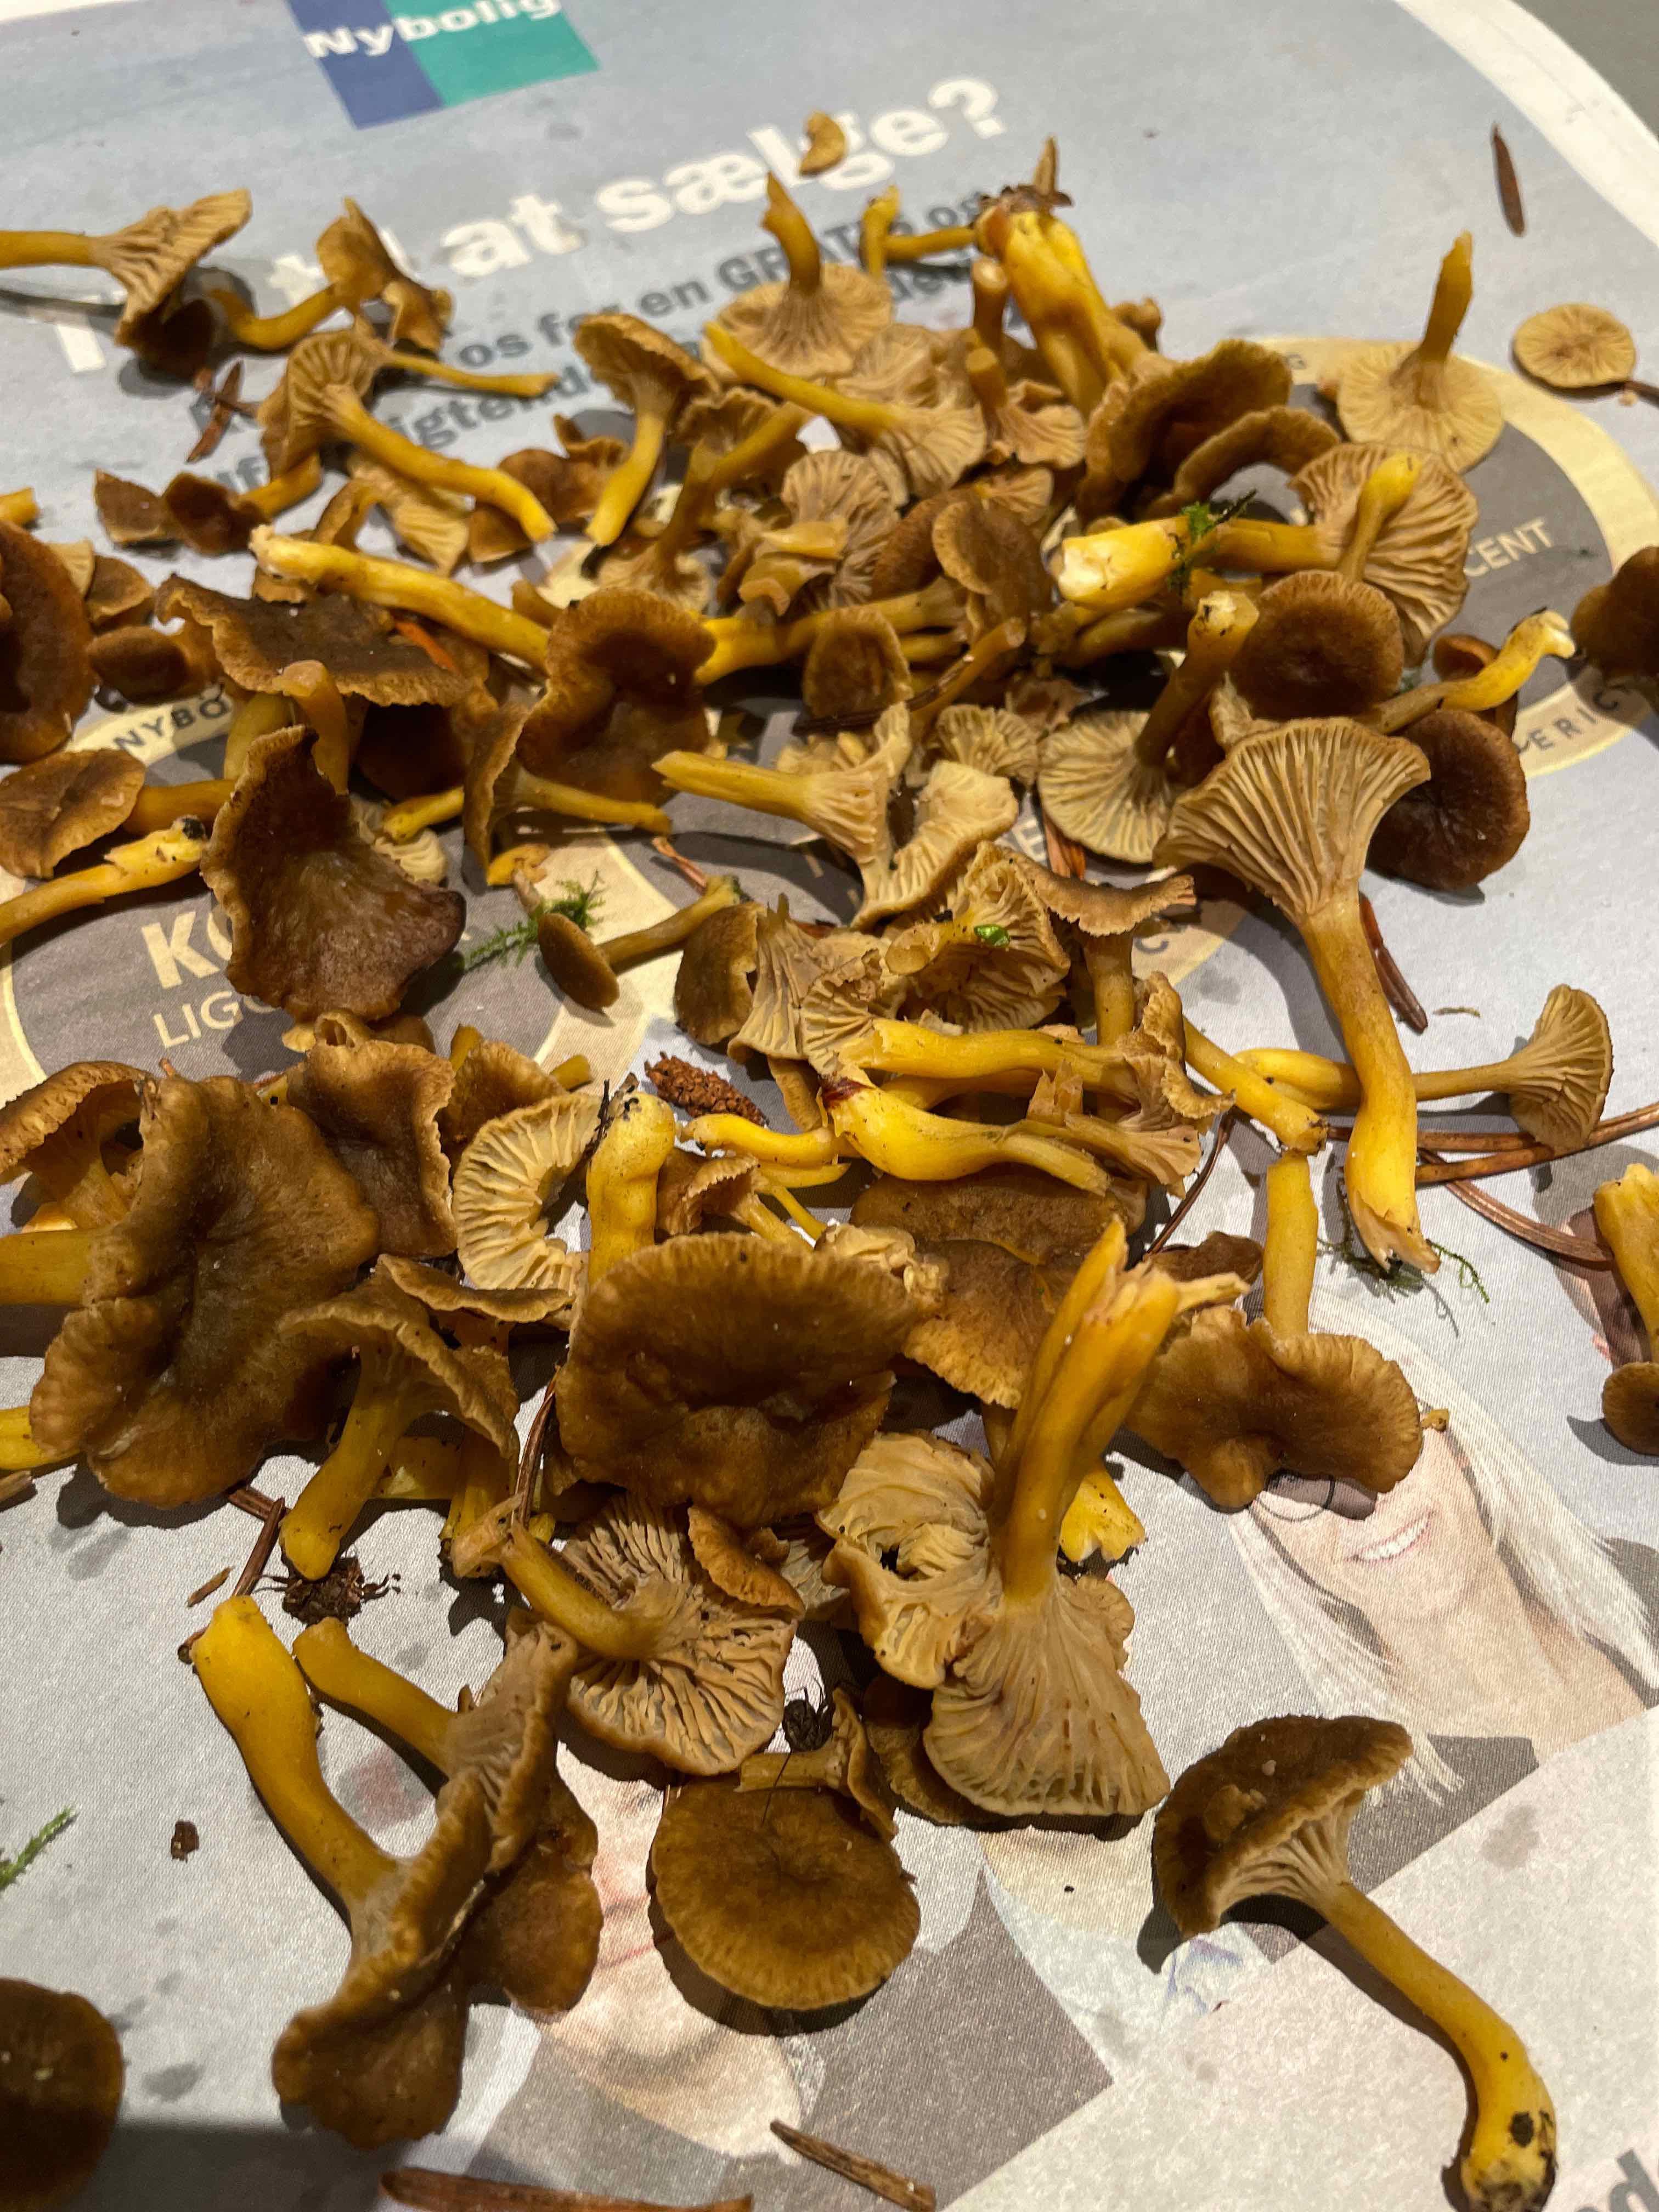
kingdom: Fungi
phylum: Basidiomycota
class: Agaricomycetes
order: Cantharellales
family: Hydnaceae
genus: Craterellus
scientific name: Craterellus tubaeformis
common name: tragt-kantarel
